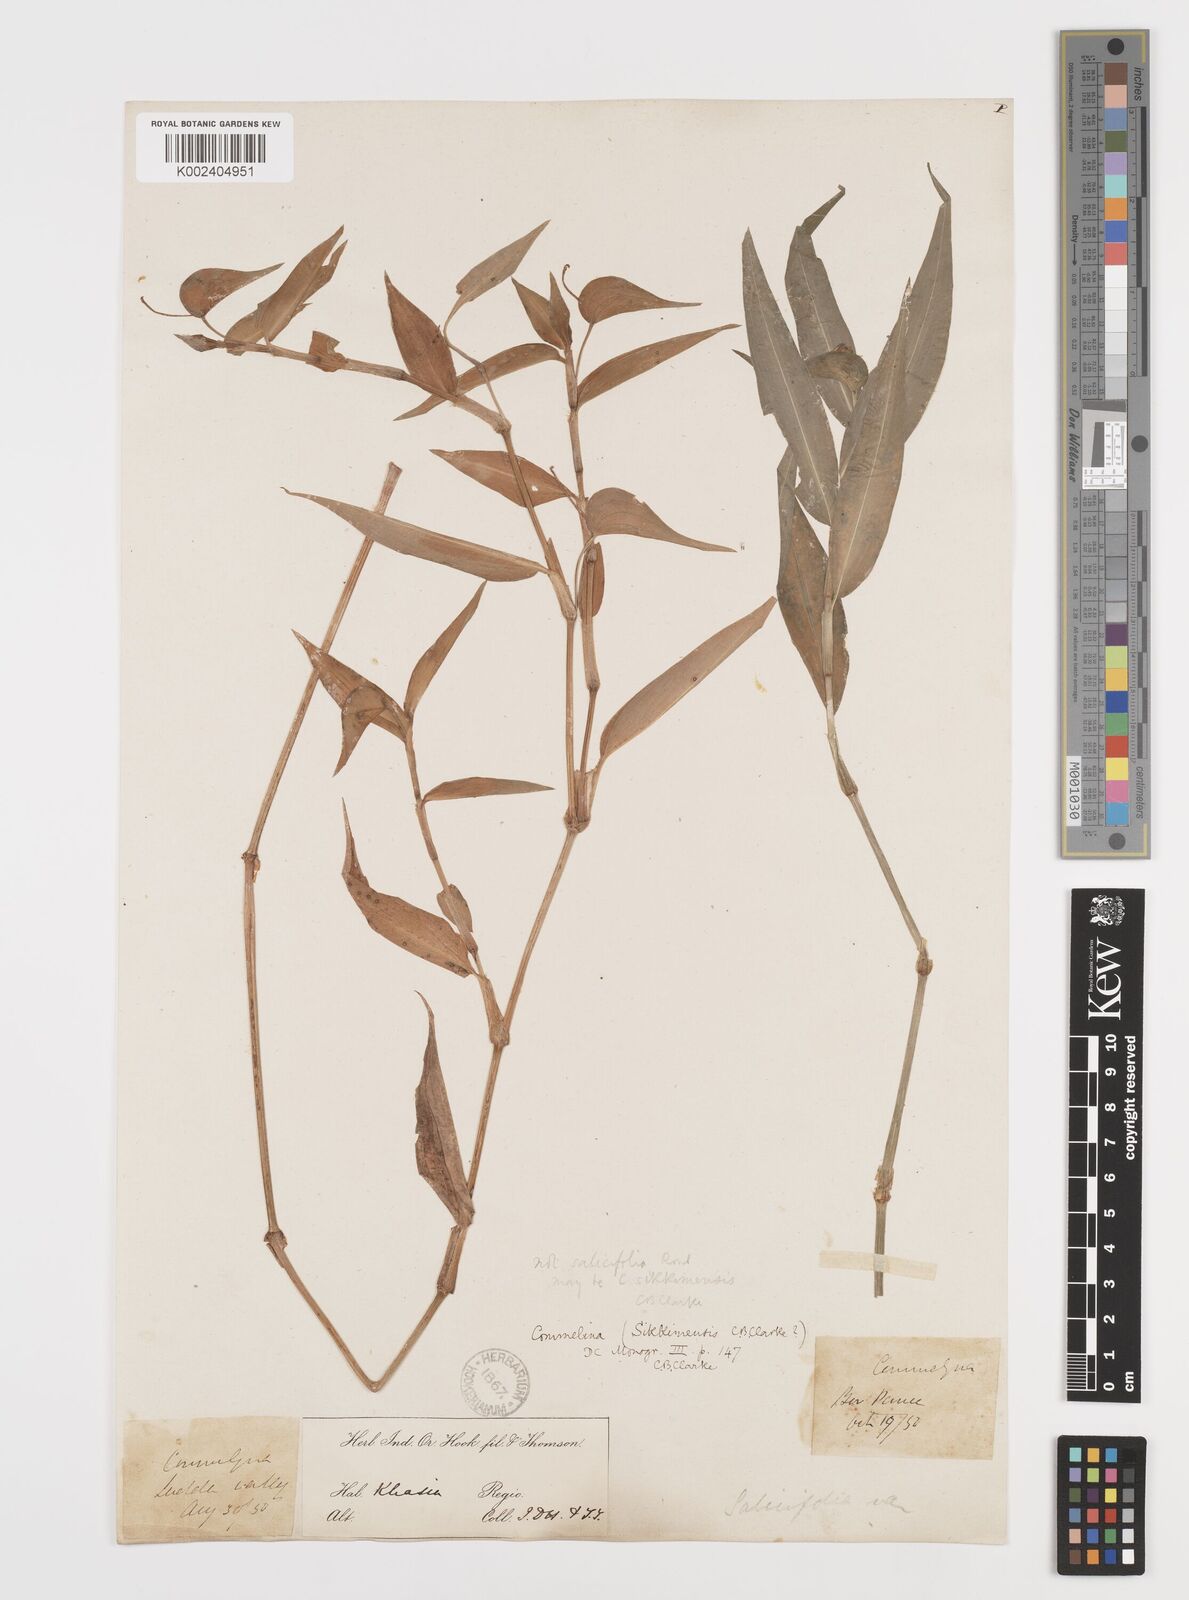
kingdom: Plantae
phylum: Tracheophyta
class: Liliopsida
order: Commelinales
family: Commelinaceae
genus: Commelina
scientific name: Commelina sikkimensis
